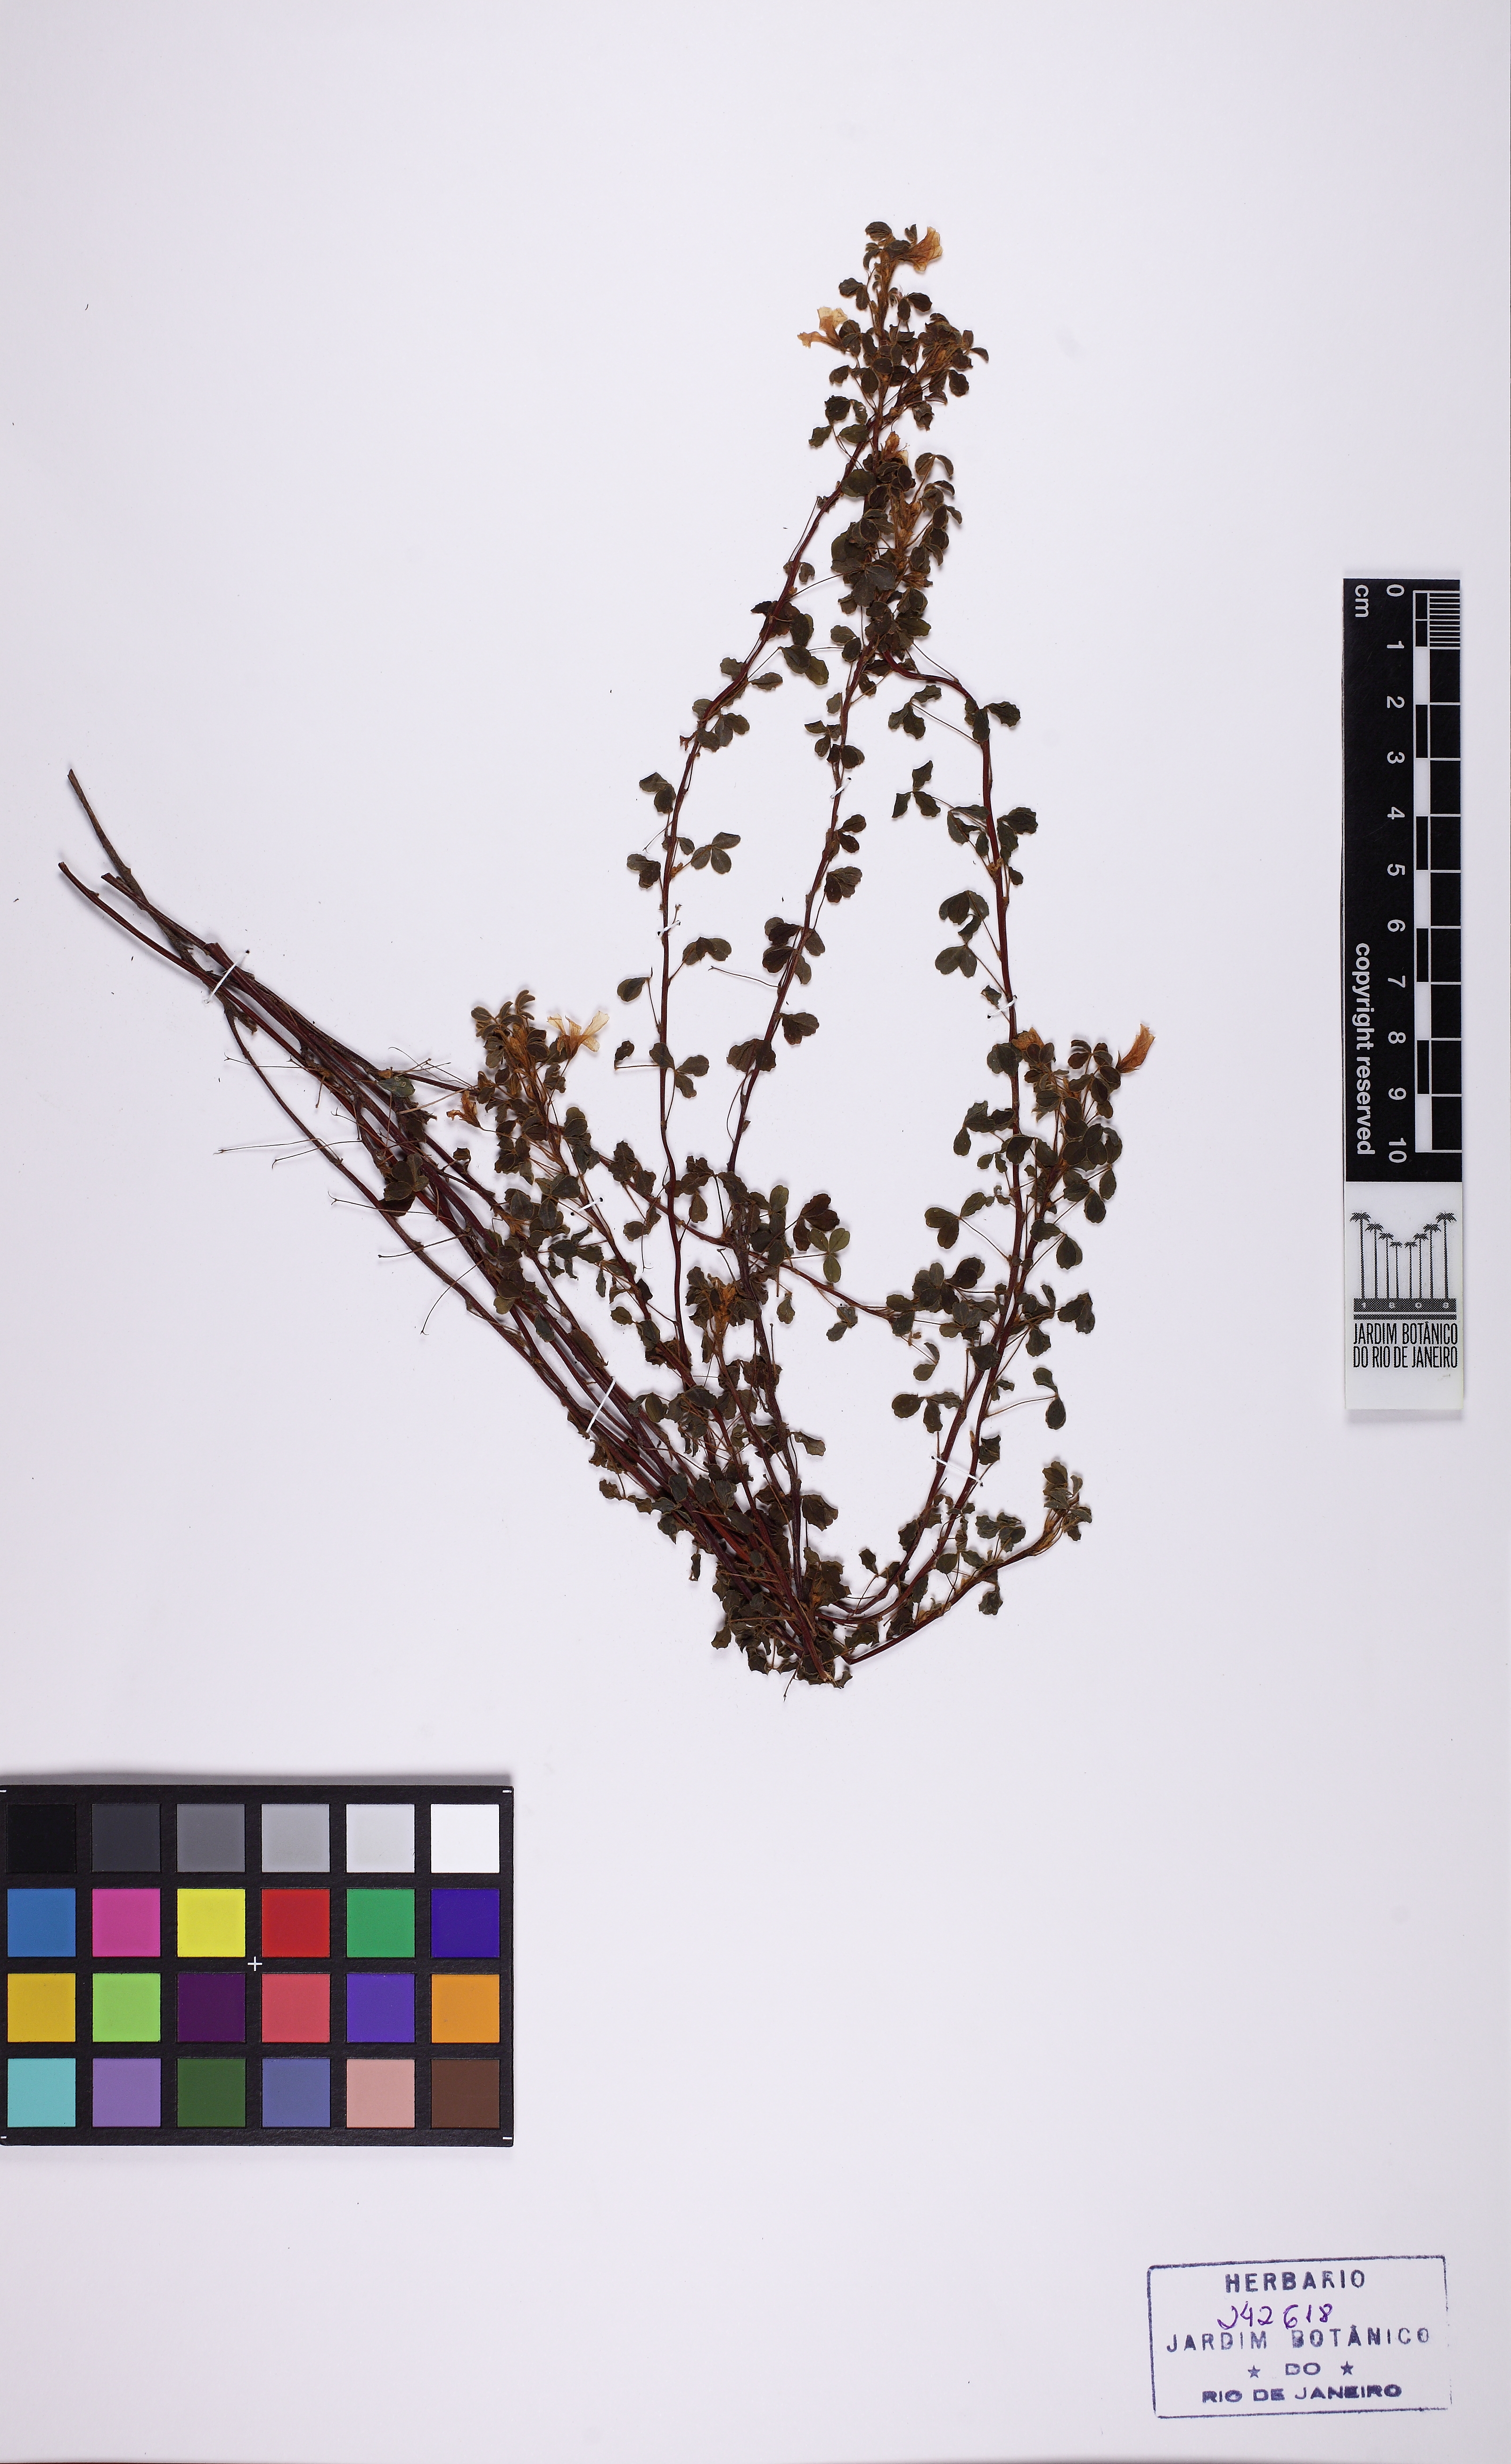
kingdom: Plantae
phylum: Tracheophyta
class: Magnoliopsida
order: Oxalidales
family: Oxalidaceae
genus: Oxalis
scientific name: Oxalis confertissima
